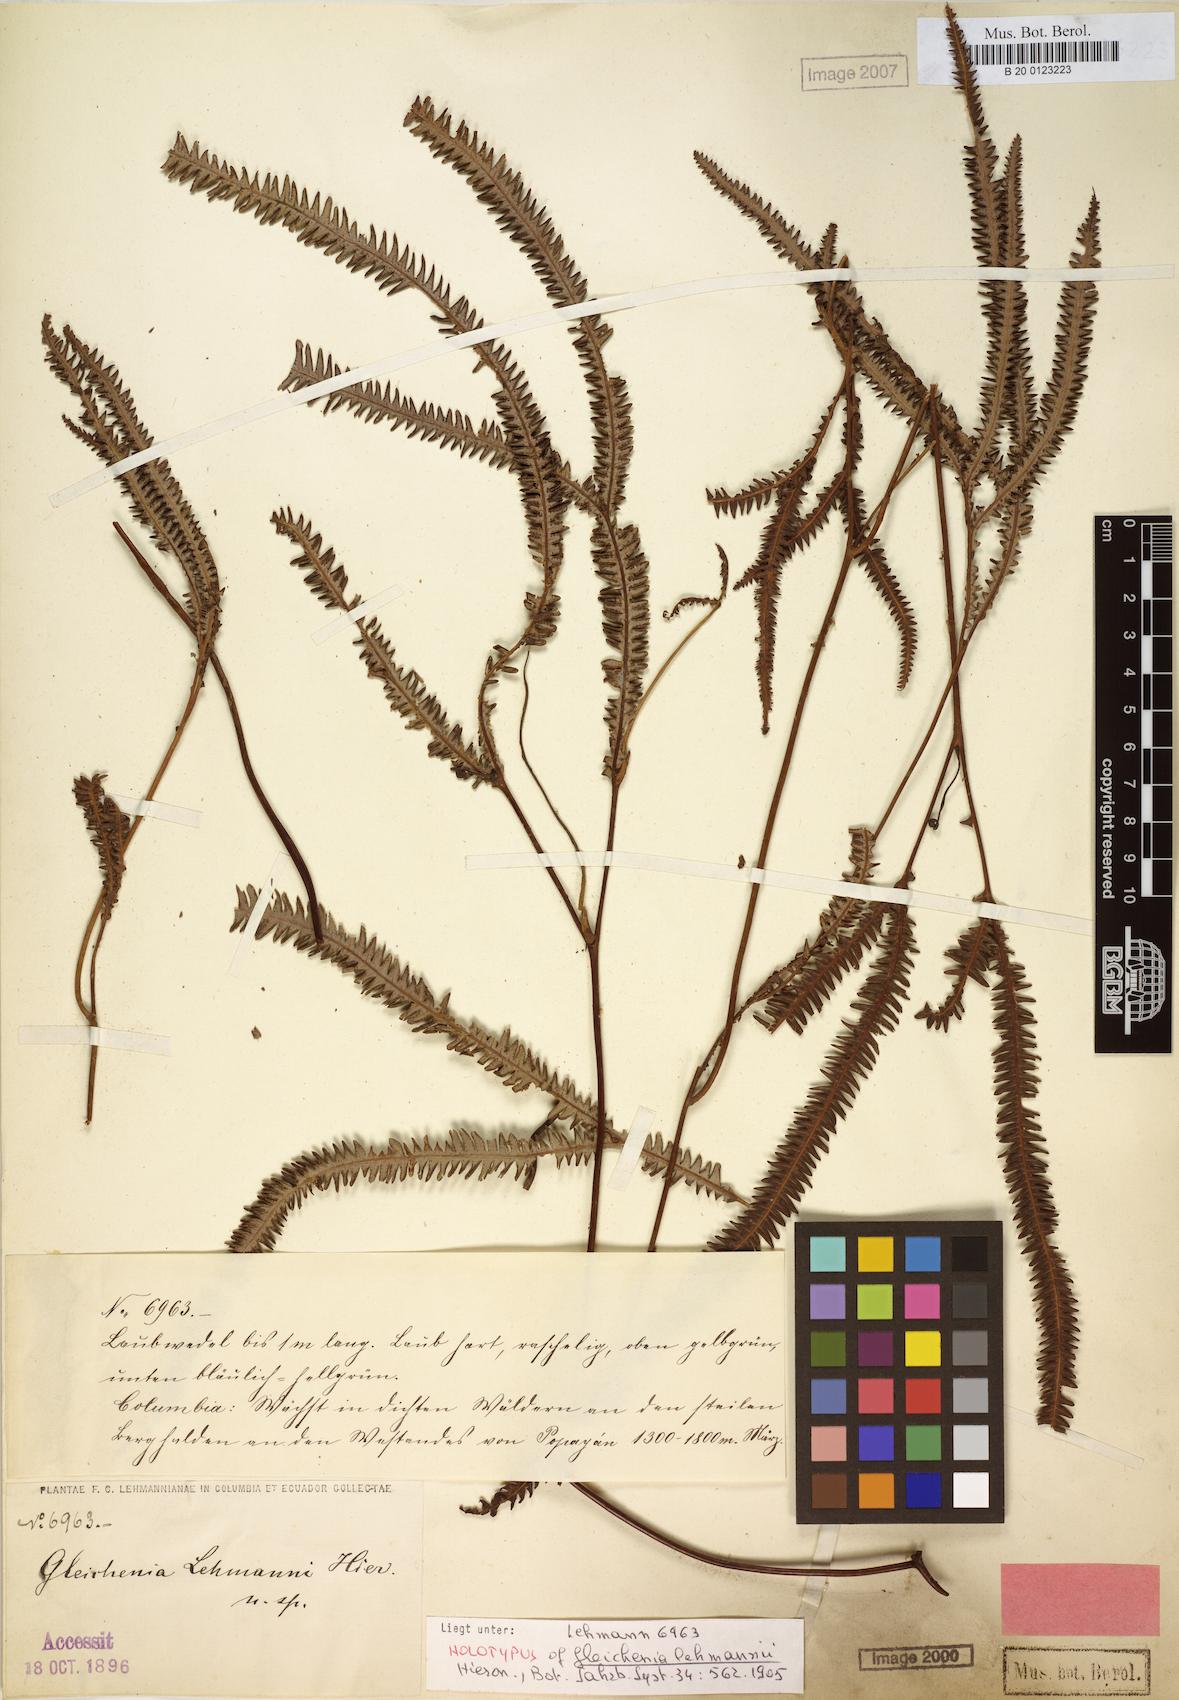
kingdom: Plantae
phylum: Tracheophyta
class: Polypodiopsida
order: Gleicheniales
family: Gleicheniaceae
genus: Sticherus
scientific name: Sticherus hypoleucus
